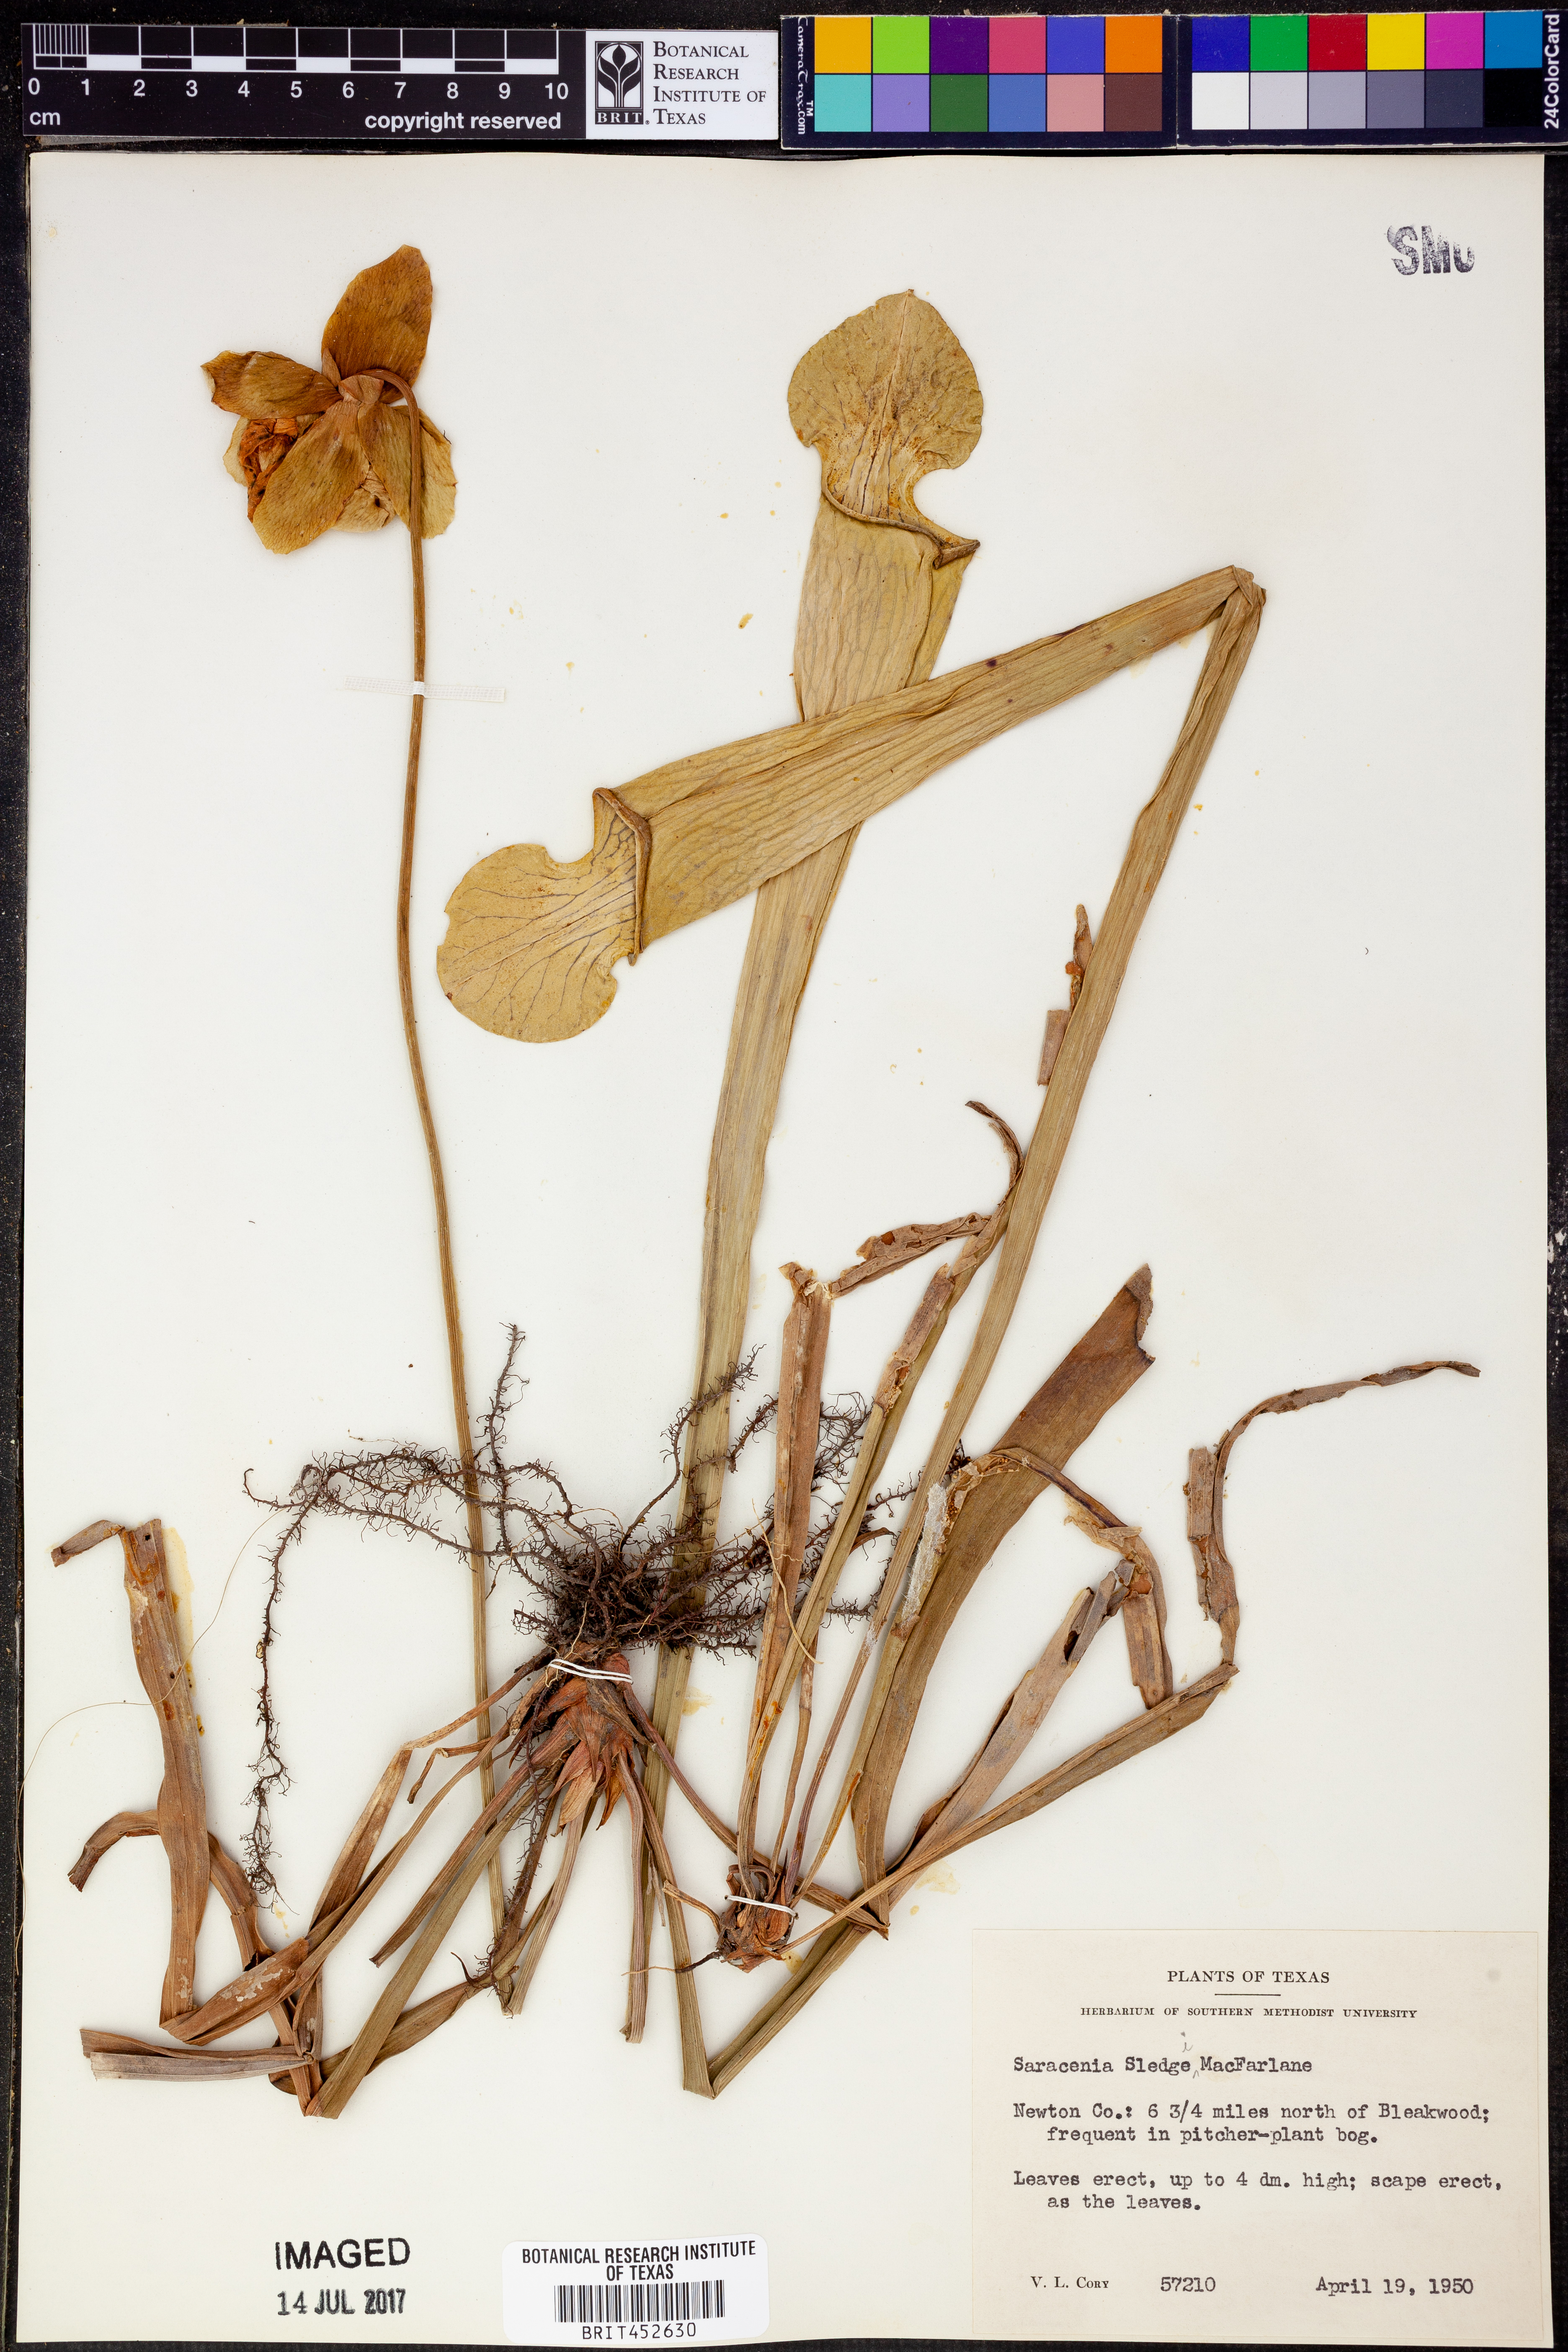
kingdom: Plantae
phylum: Tracheophyta
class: Magnoliopsida
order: Ericales
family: Sarraceniaceae
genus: Sarracenia
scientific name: Sarracenia alata
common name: Yellow trumpets
